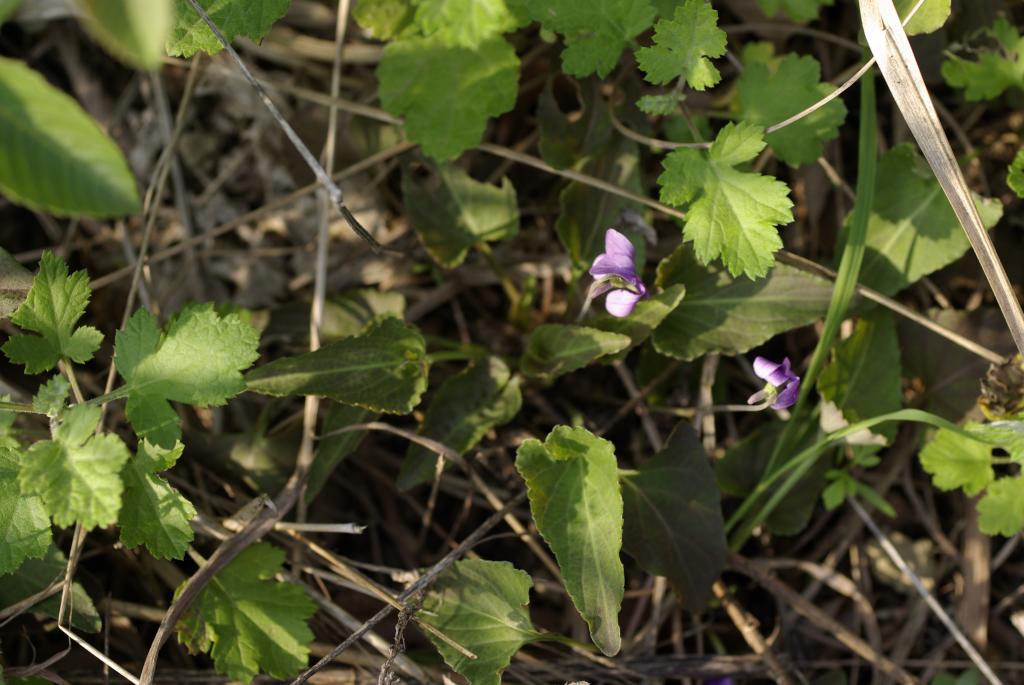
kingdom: Plantae
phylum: Tracheophyta
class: Magnoliopsida
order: Malpighiales
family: Violaceae
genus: Viola
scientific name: Viola inconspicua
